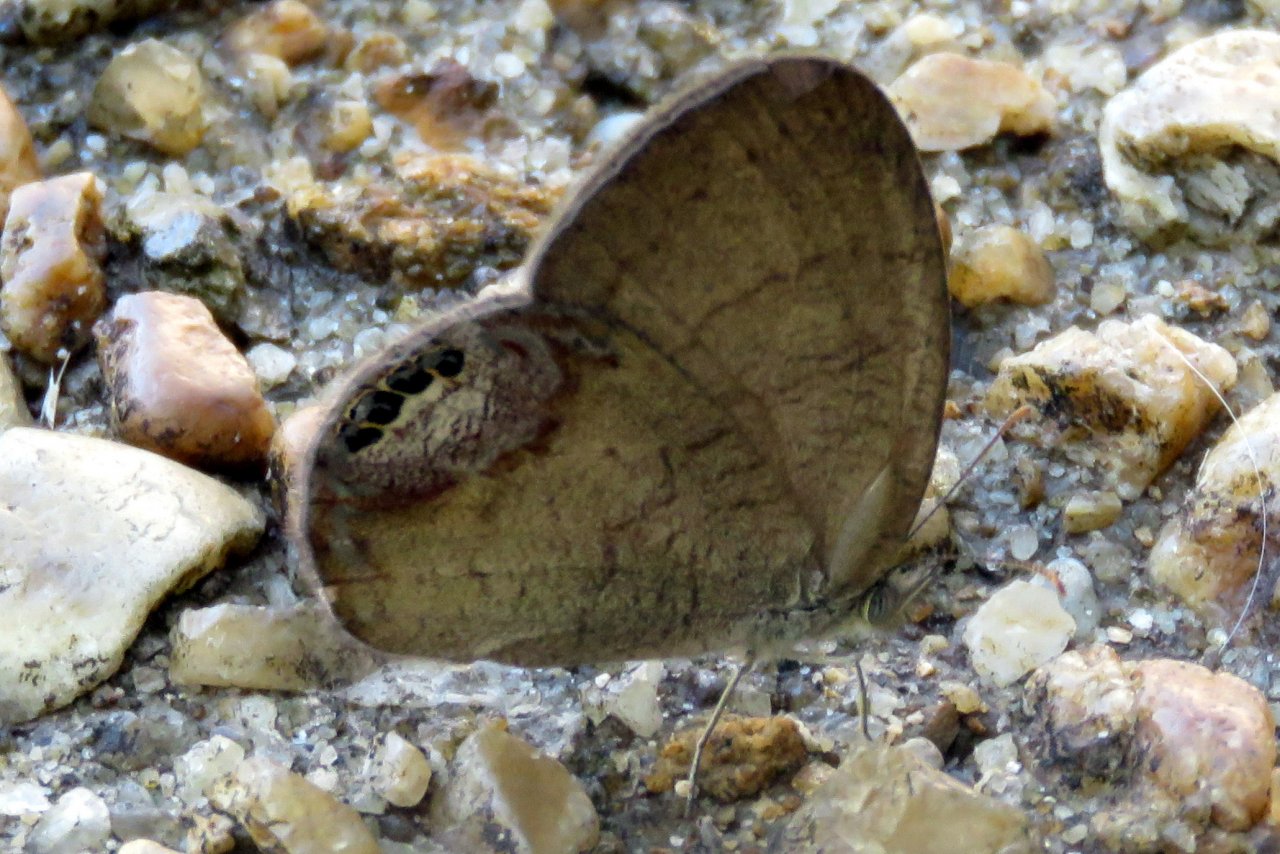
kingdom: Animalia
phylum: Arthropoda
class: Insecta
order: Lepidoptera
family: Nymphalidae
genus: Euptychia
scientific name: Euptychia cornelius
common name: Gemmed Satyr
